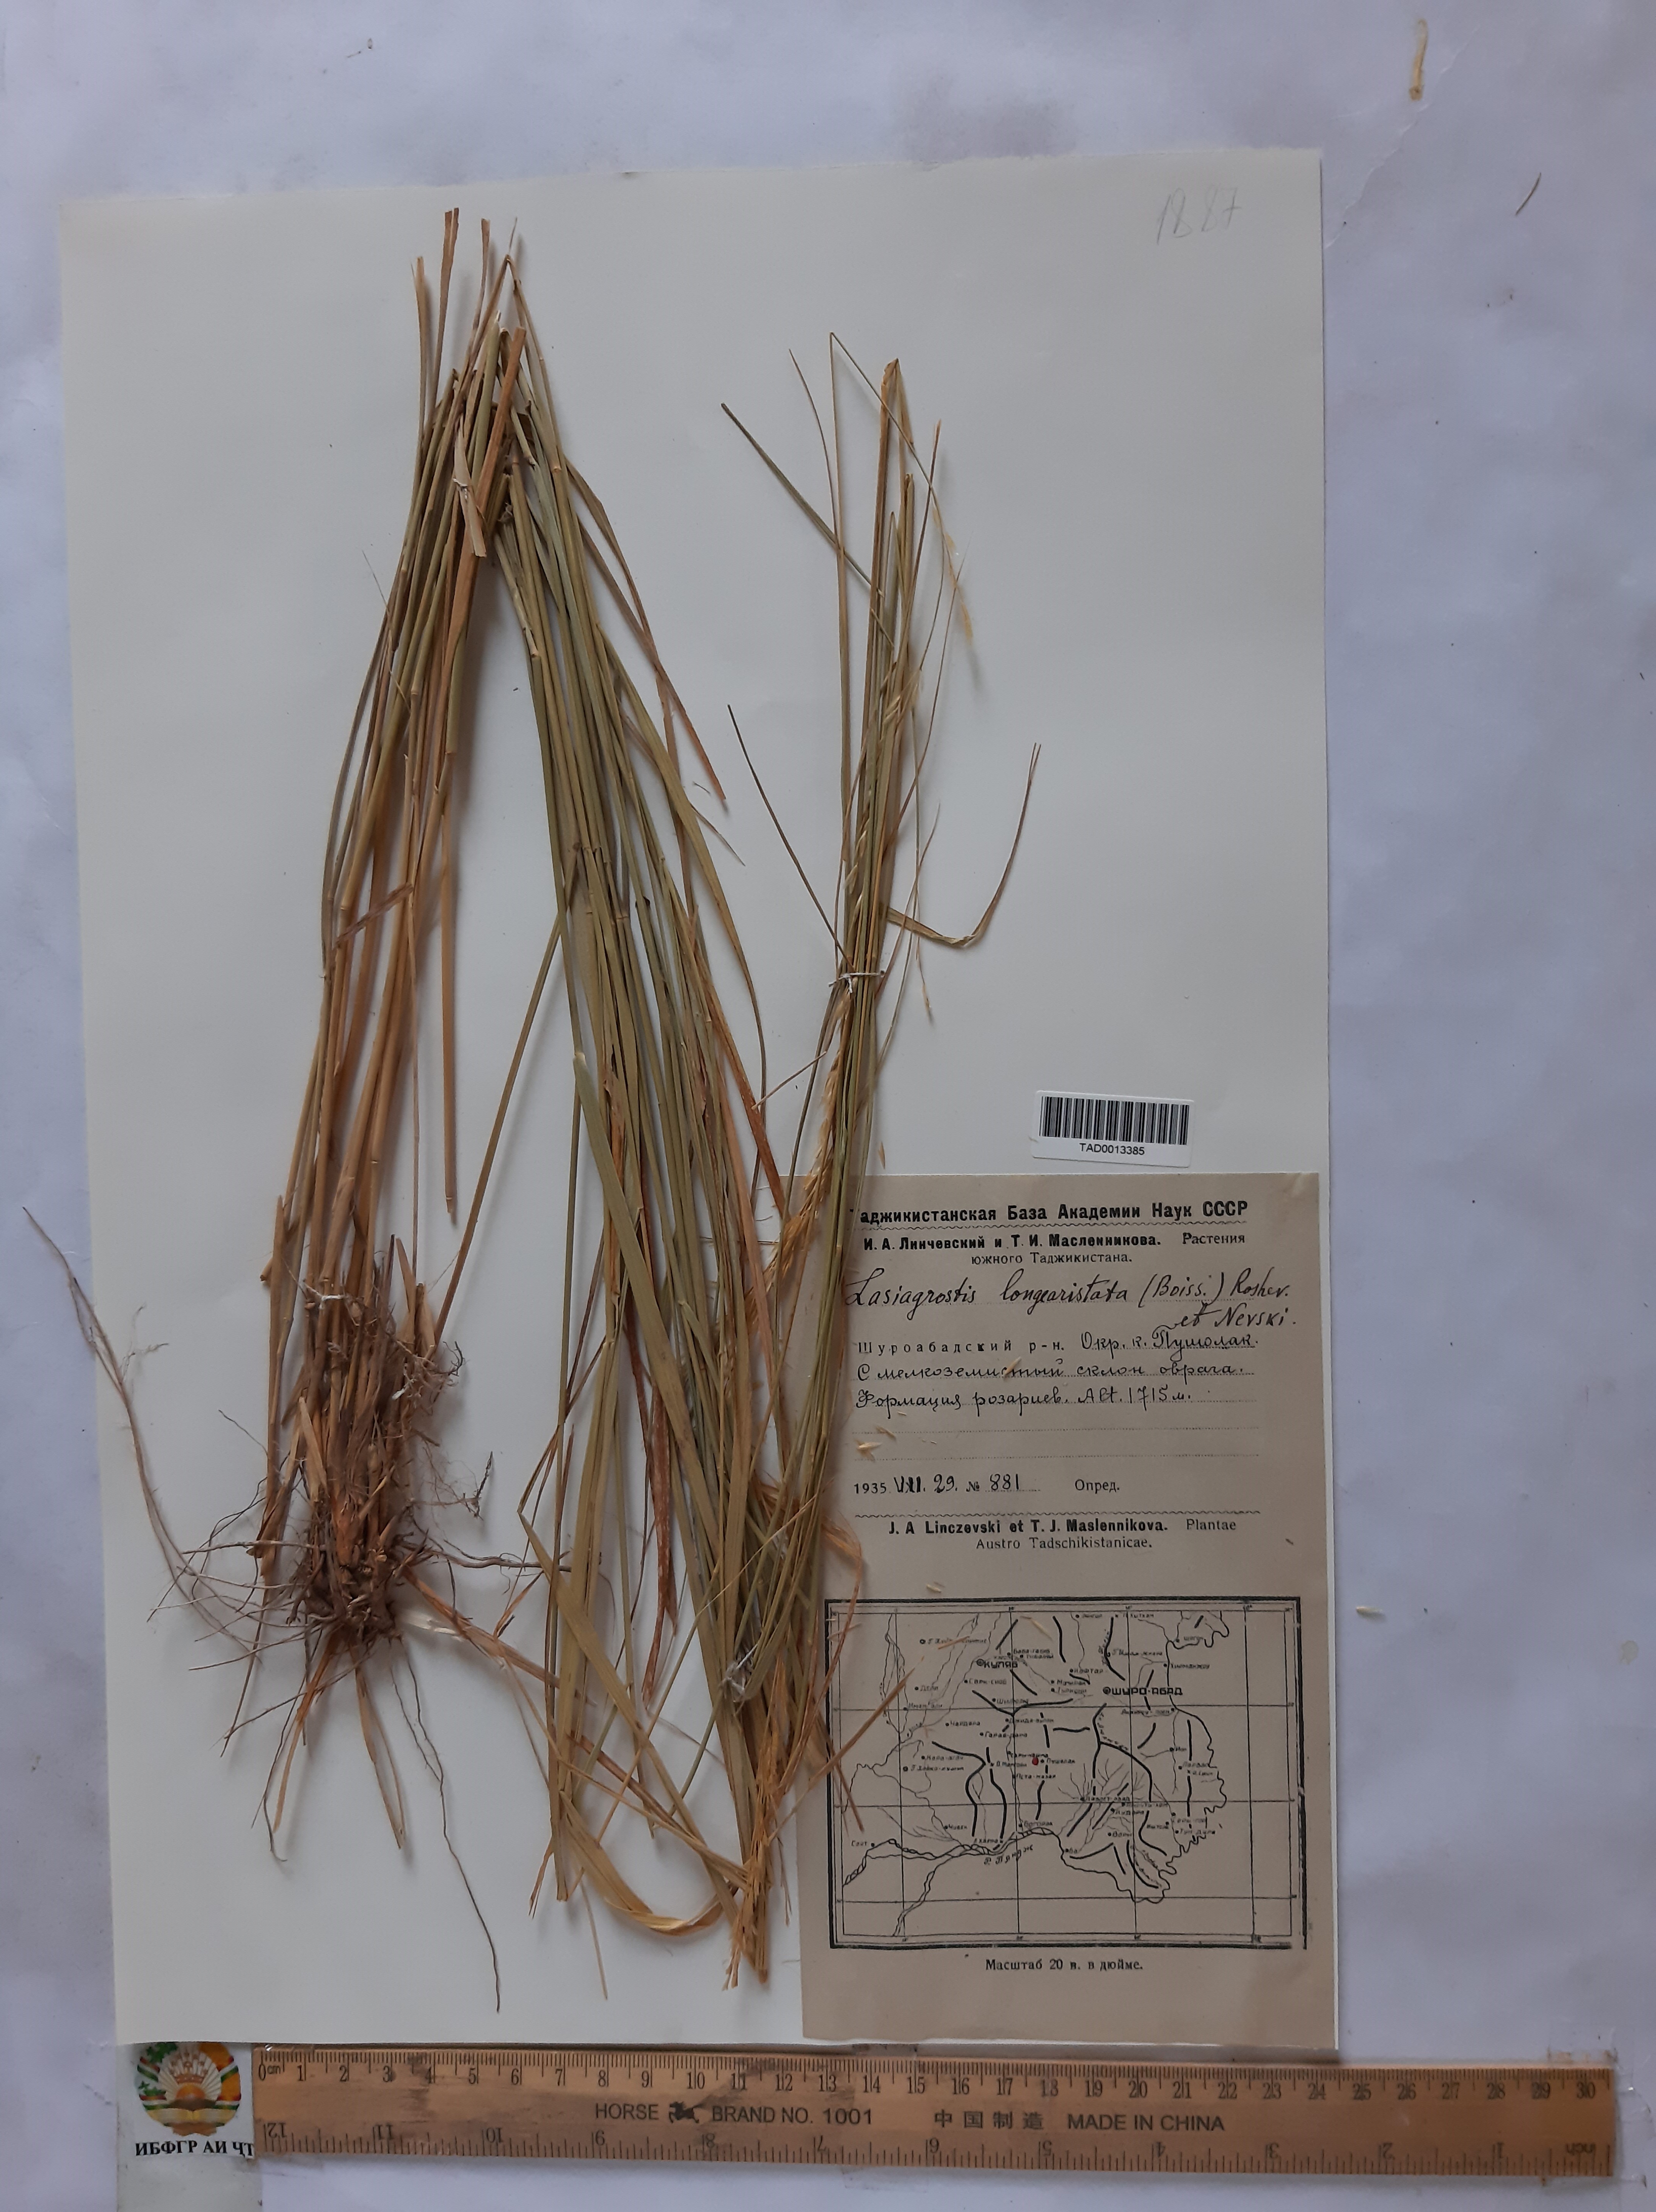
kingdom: Plantae
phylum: Tracheophyta
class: Liliopsida
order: Poales
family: Poaceae
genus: Achnatherum
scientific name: Achnatherum turcomanicum
